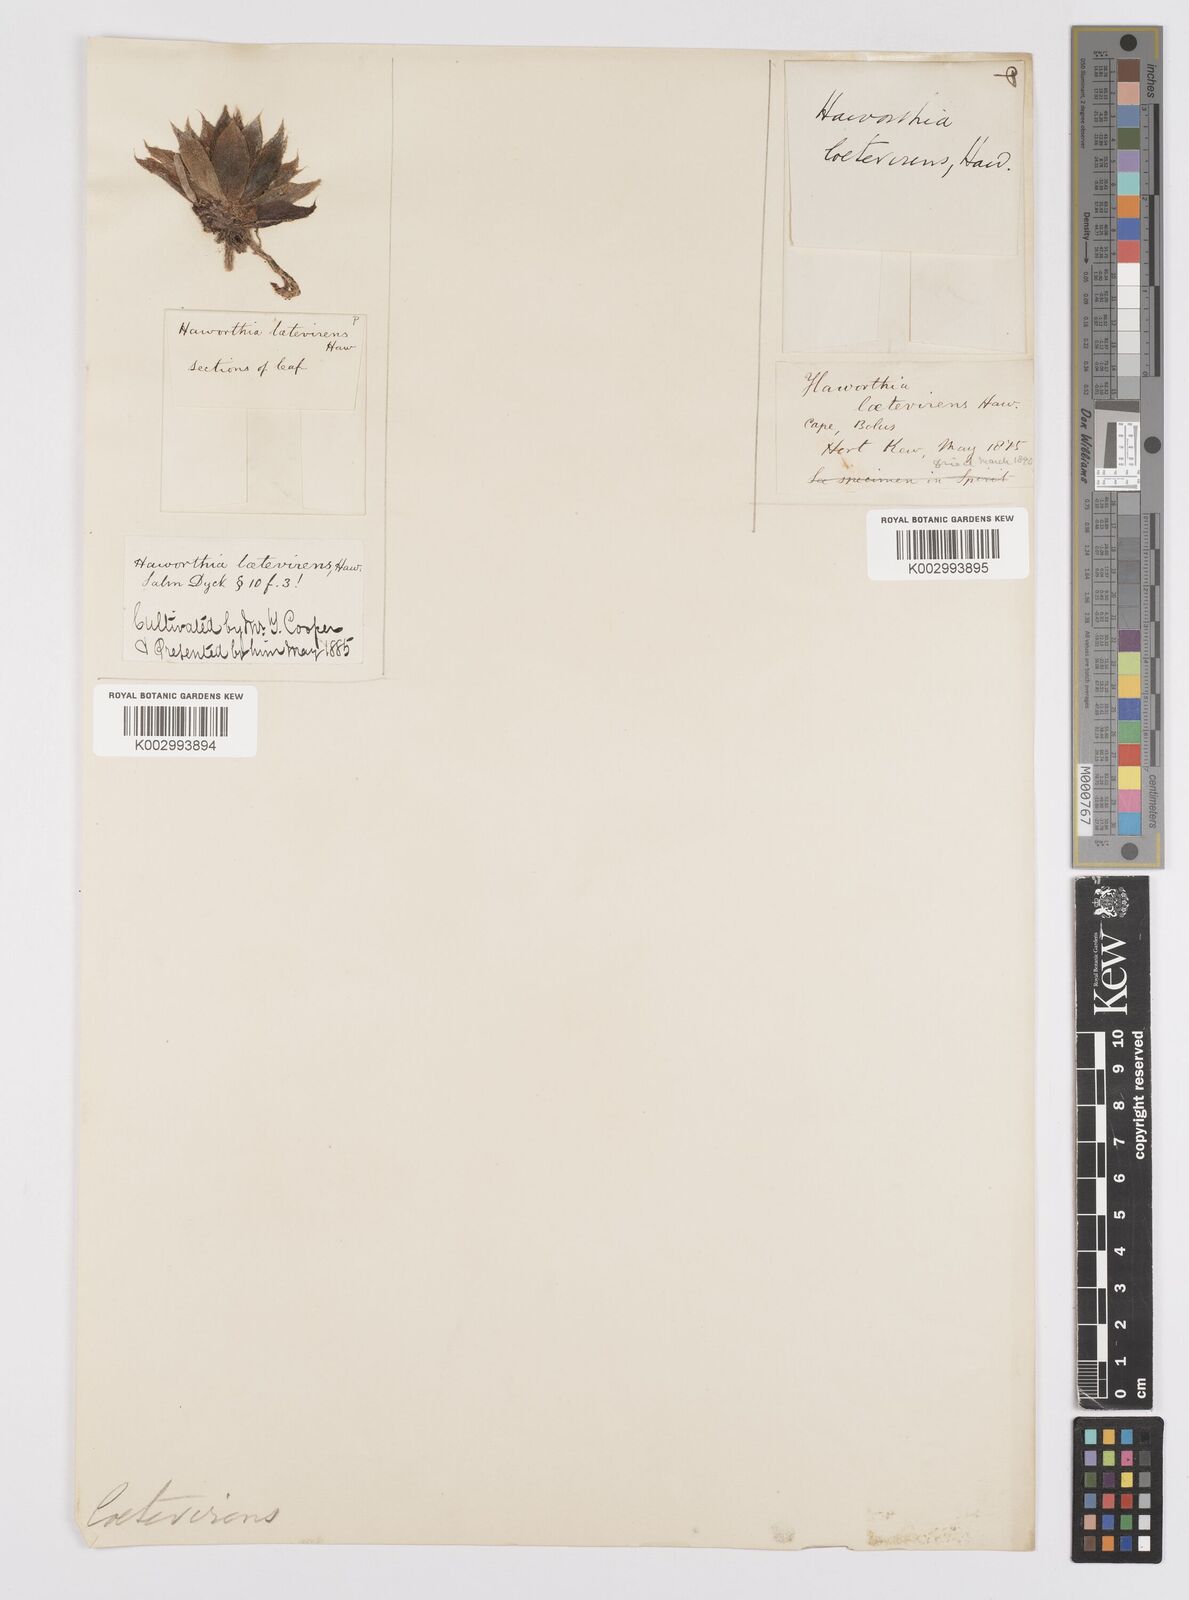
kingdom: Plantae
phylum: Tracheophyta
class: Liliopsida
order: Asparagales
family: Asphodelaceae
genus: Haworthia
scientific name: Haworthia turgida
